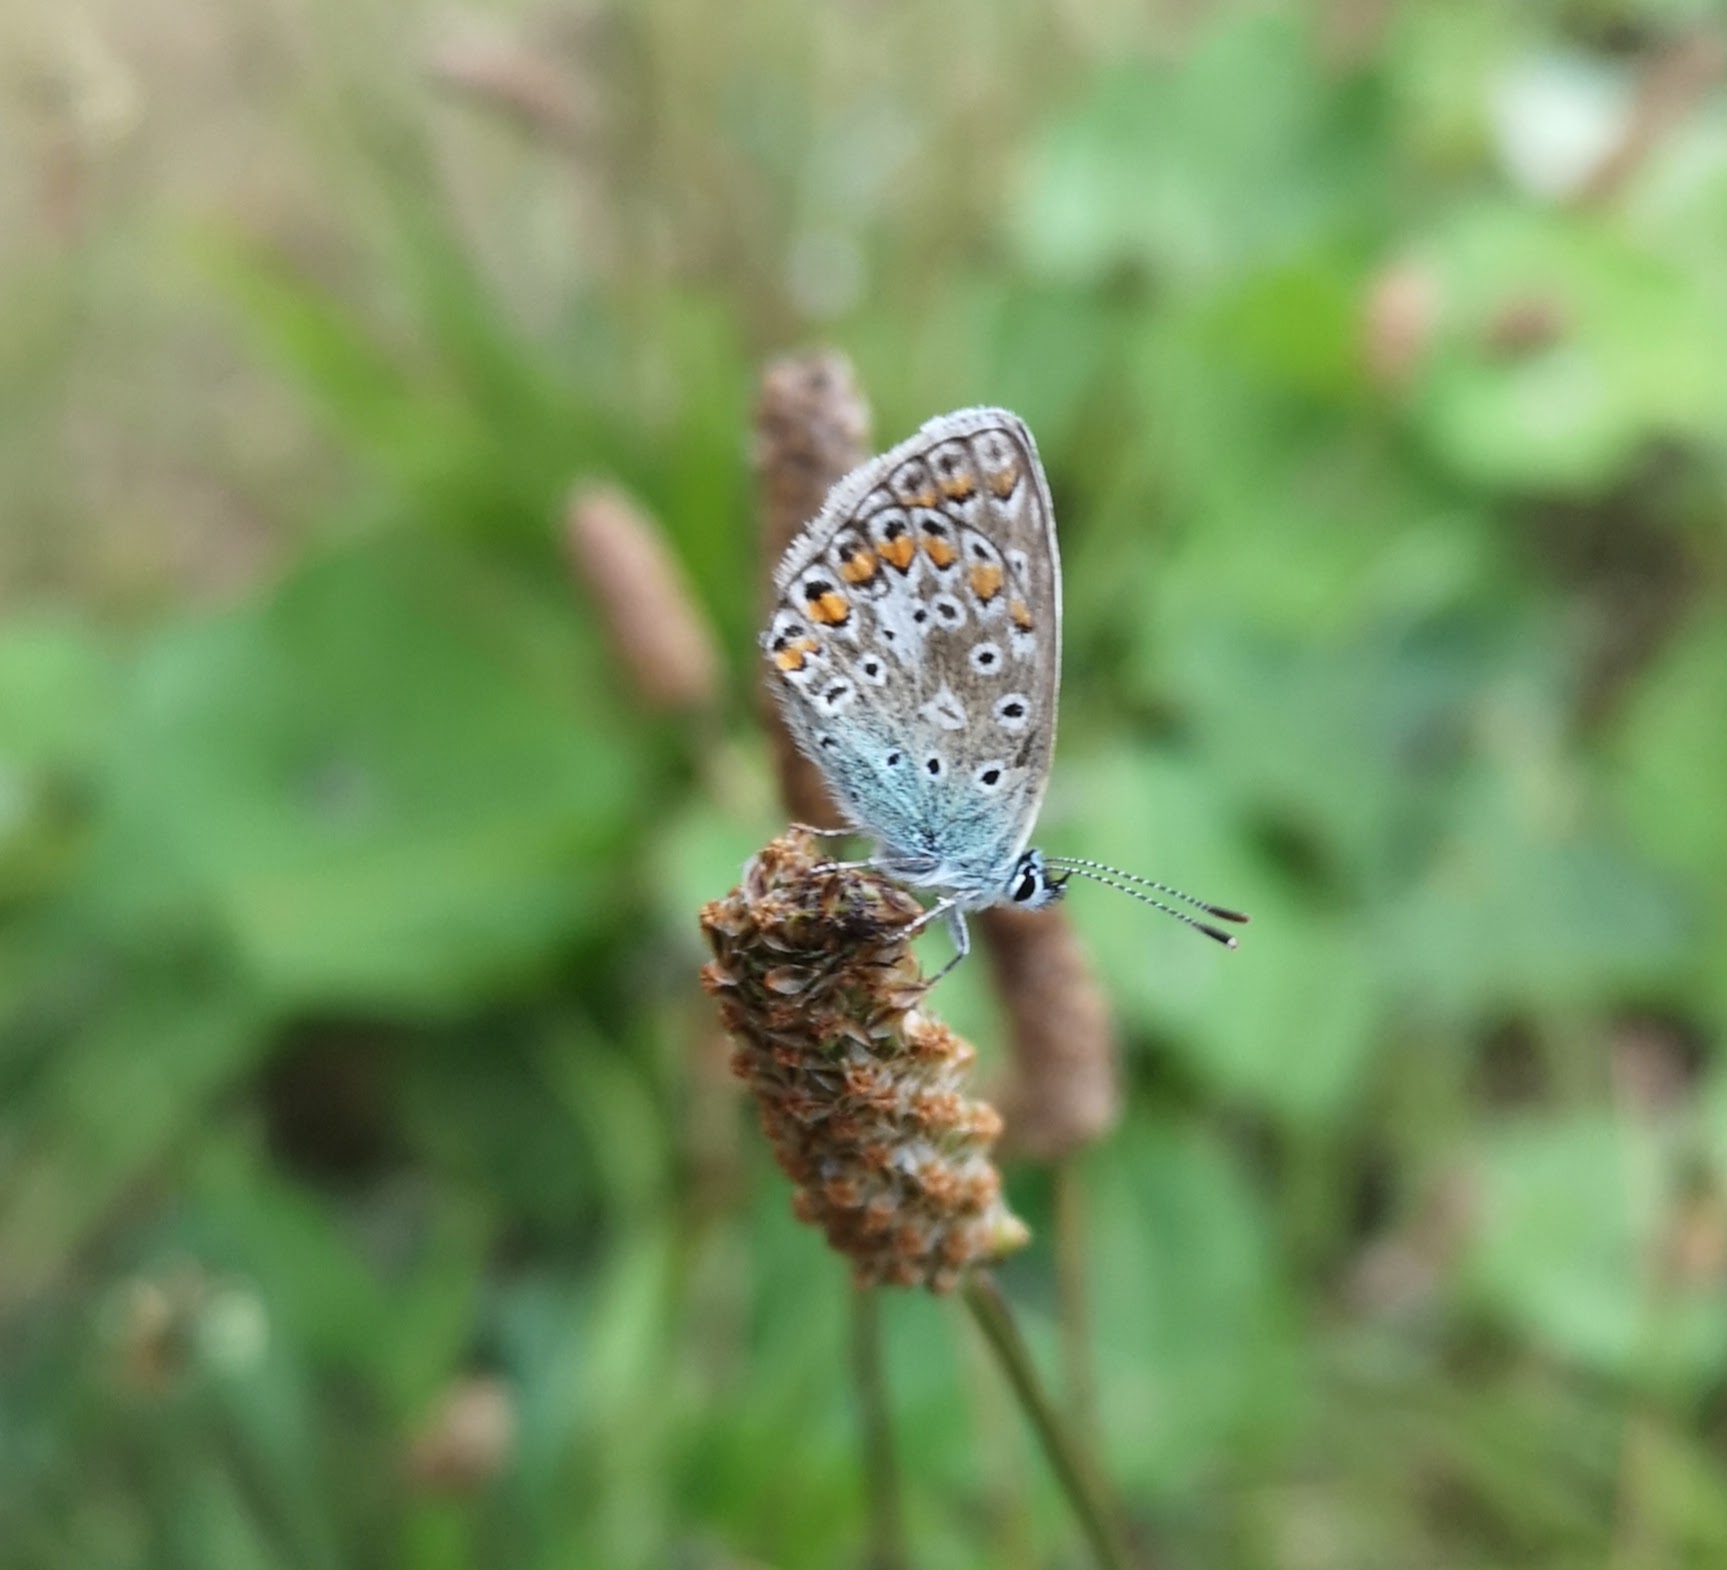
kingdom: Animalia
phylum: Arthropoda
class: Insecta
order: Lepidoptera
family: Lycaenidae
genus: Polyommatus
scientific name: Polyommatus icarus
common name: Almindelig blåfugl
